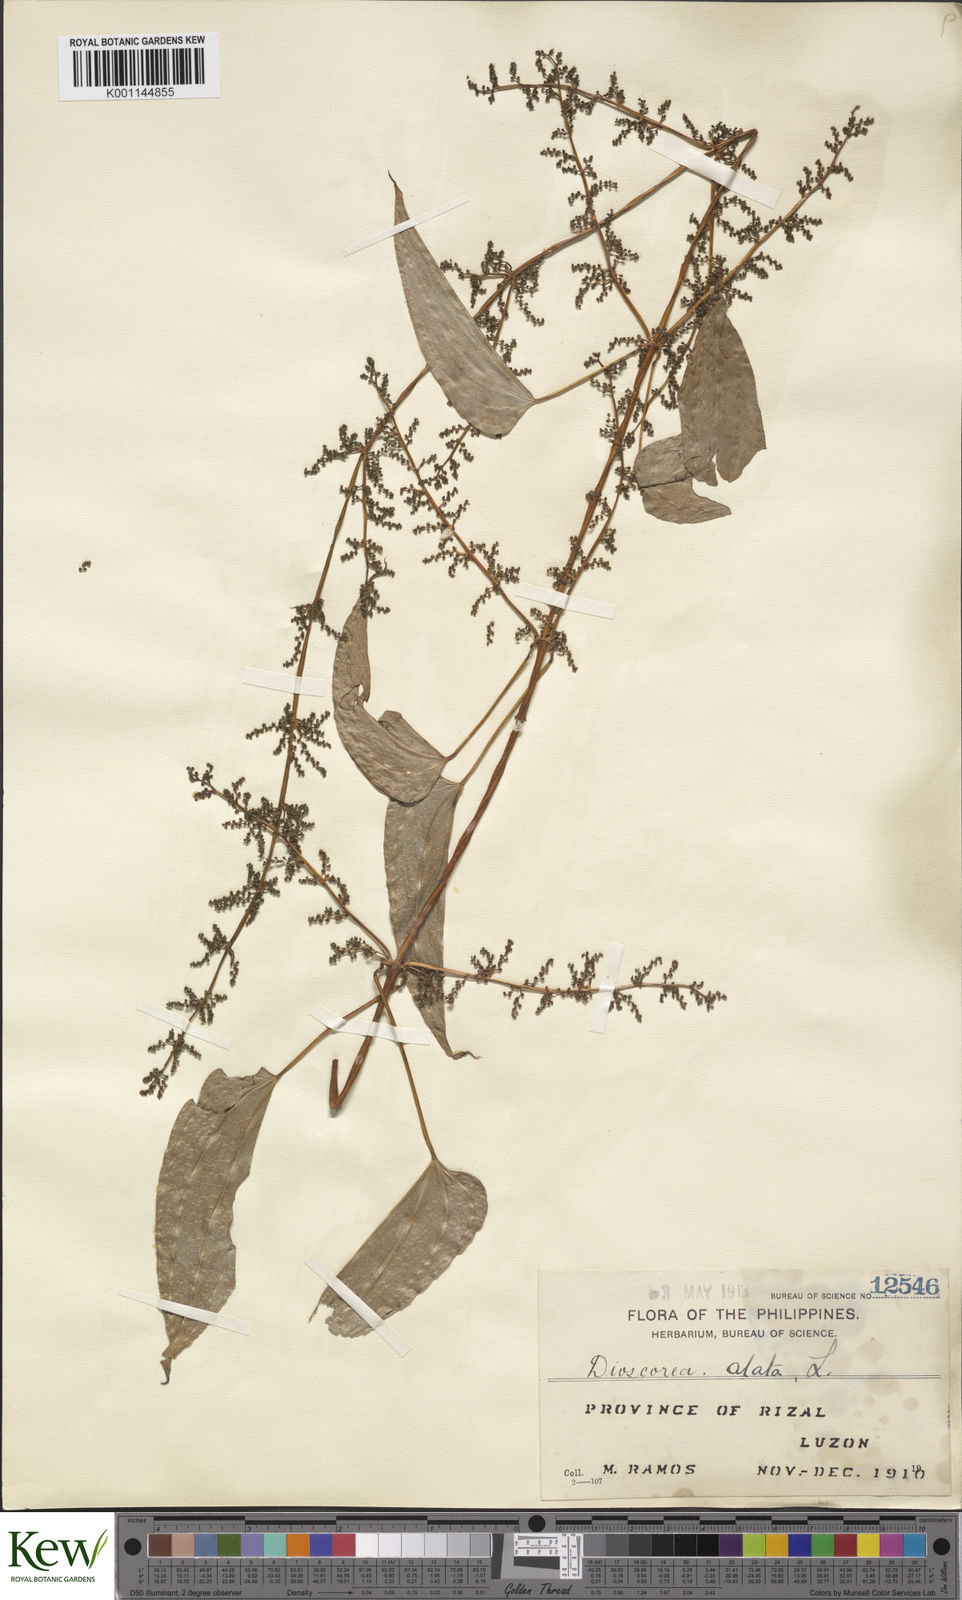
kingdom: Plantae
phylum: Tracheophyta
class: Liliopsida
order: Dioscoreales
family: Dioscoreaceae
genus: Dioscorea
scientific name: Dioscorea alata
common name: Water yam
